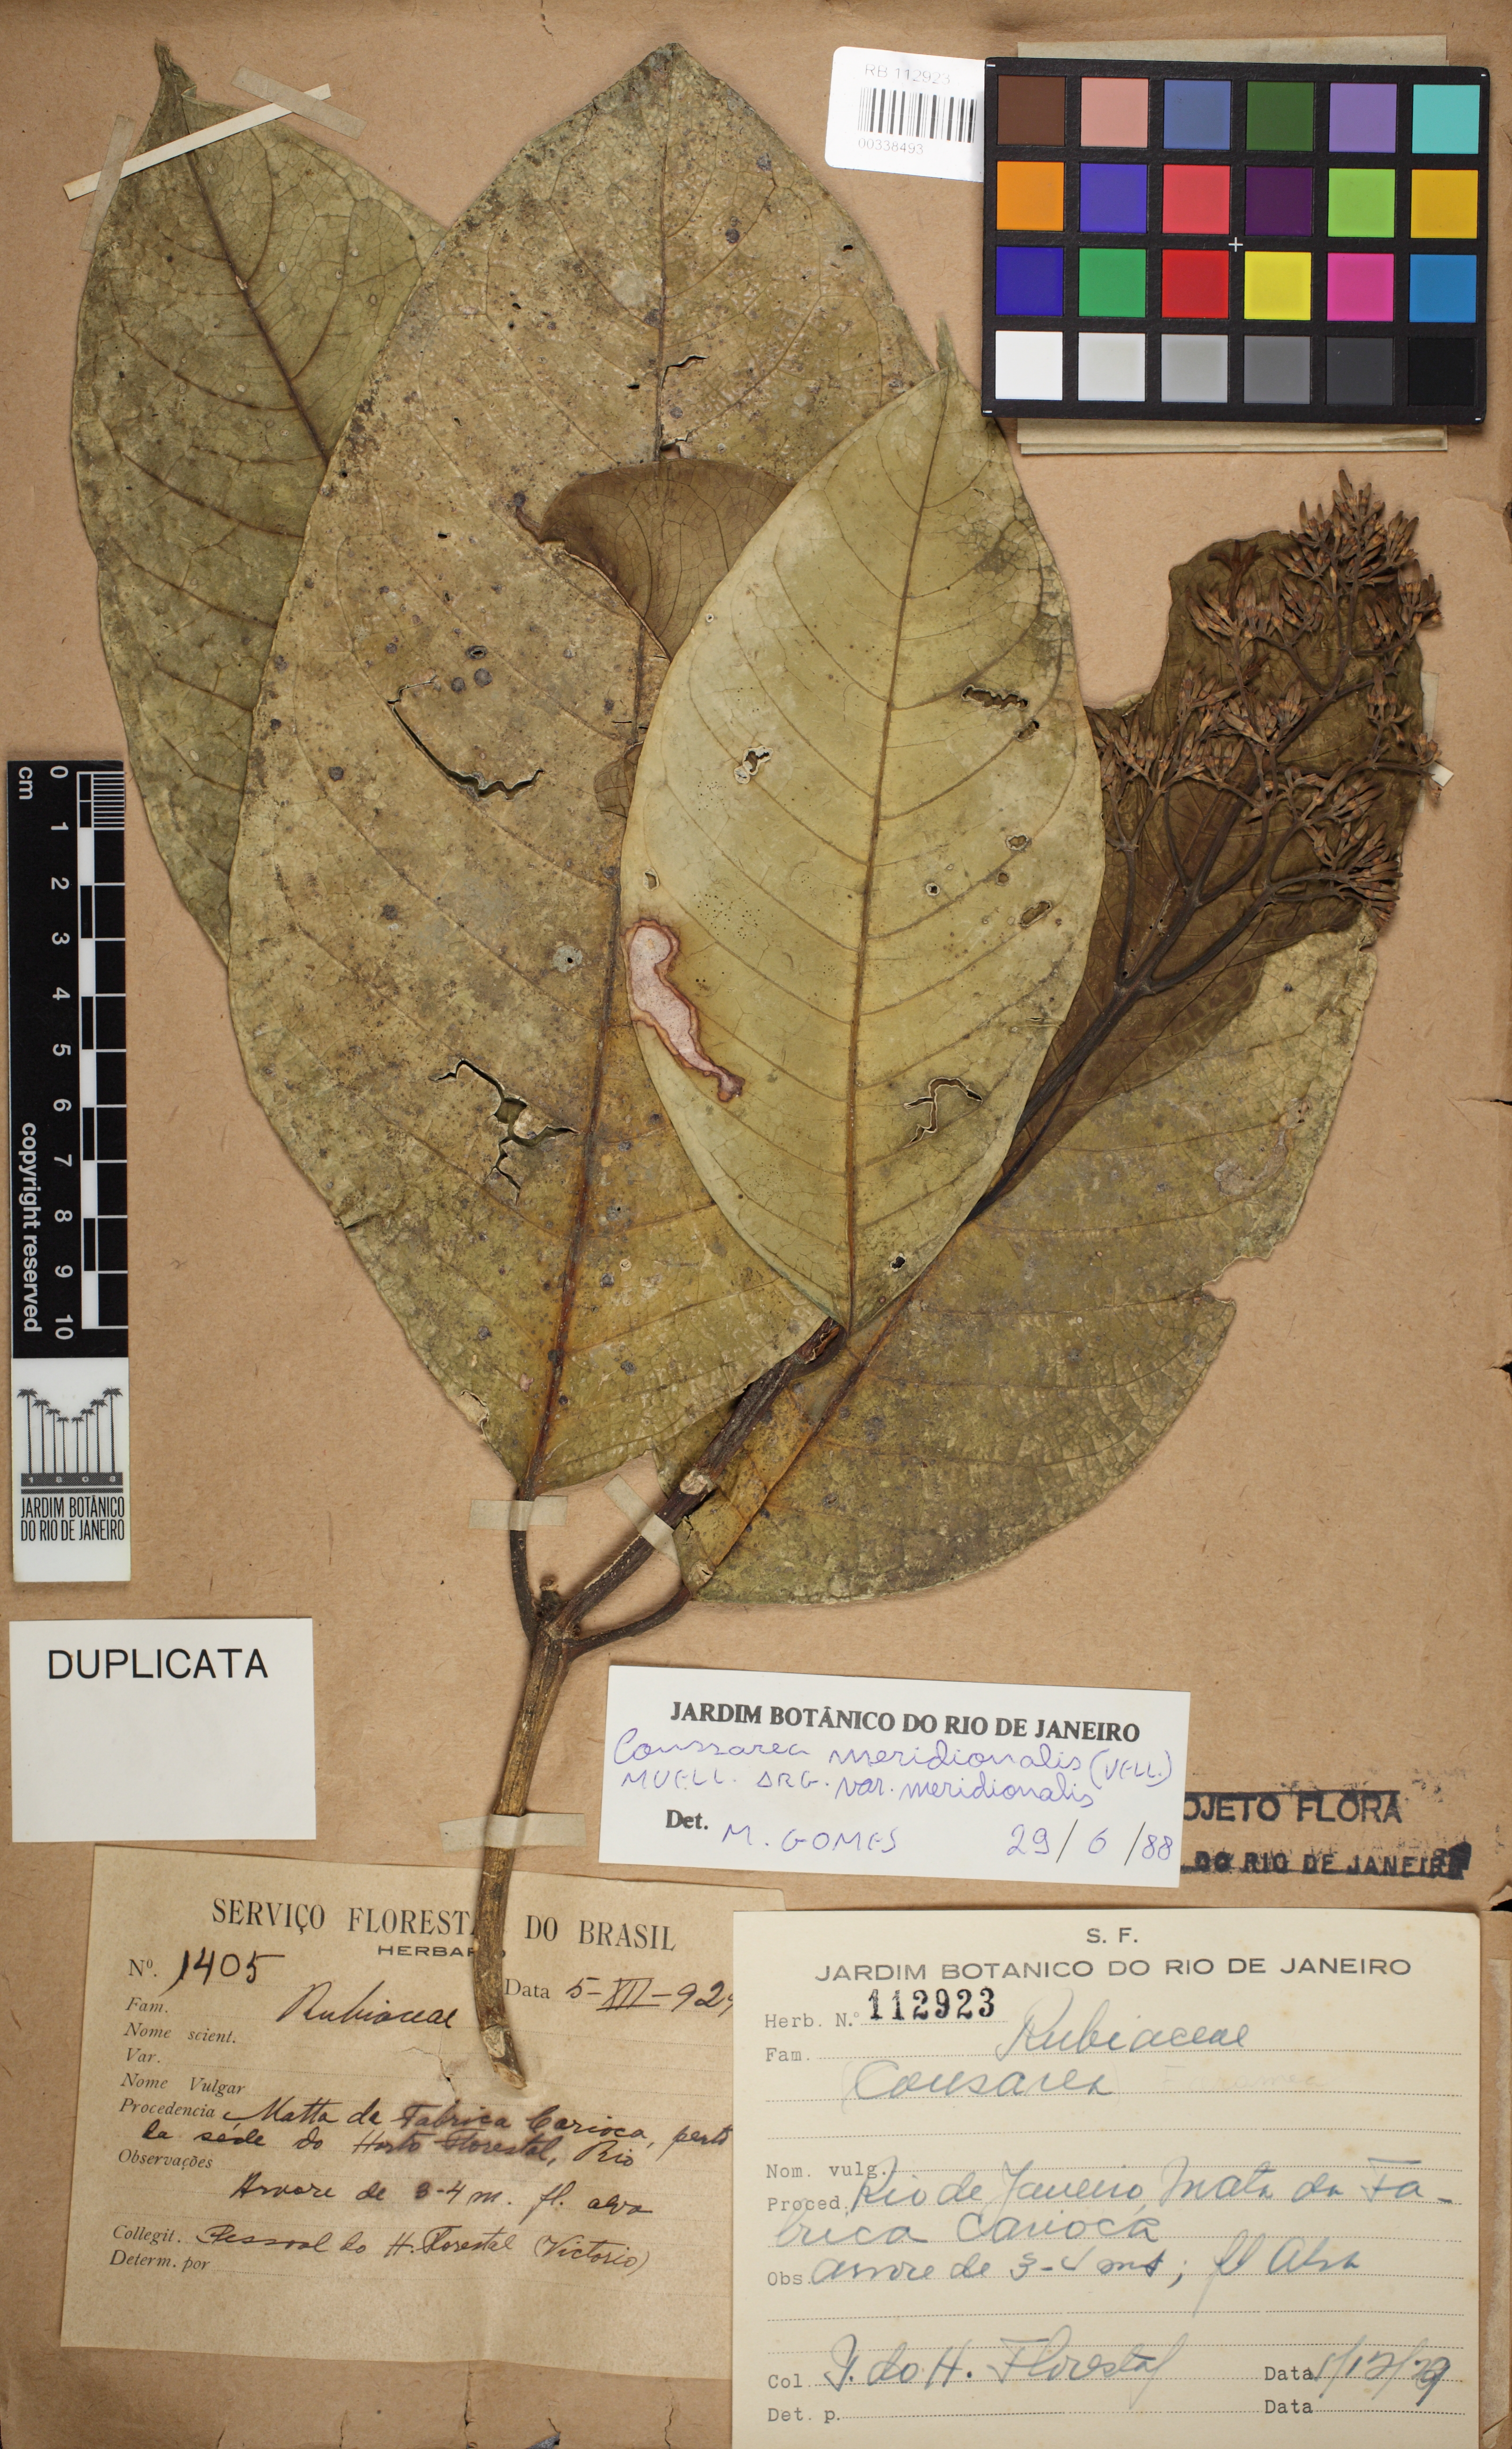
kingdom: Plantae
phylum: Tracheophyta
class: Magnoliopsida
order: Gentianales
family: Rubiaceae
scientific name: Rubiaceae
